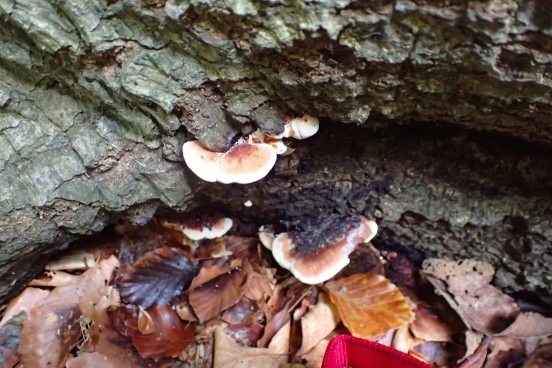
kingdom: Fungi
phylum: Basidiomycota
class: Agaricomycetes
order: Polyporales
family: Ischnodermataceae
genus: Ischnoderma
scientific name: Ischnoderma resinosum
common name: løv-tjæreporesvamp
